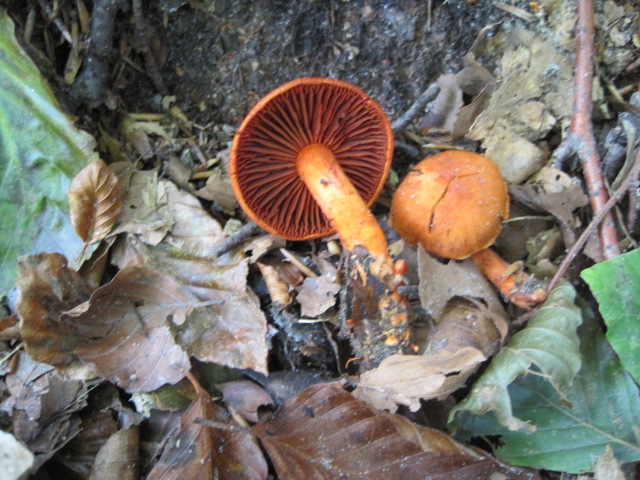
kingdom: Fungi
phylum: Basidiomycota
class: Agaricomycetes
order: Agaricales
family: Cortinariaceae
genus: Cortinarius
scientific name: Cortinarius cinnabarinus
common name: cinnober-slørhat
